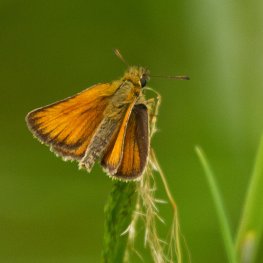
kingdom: Animalia
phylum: Arthropoda
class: Insecta
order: Lepidoptera
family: Hesperiidae
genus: Thymelicus
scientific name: Thymelicus lineola
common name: European Skipper
